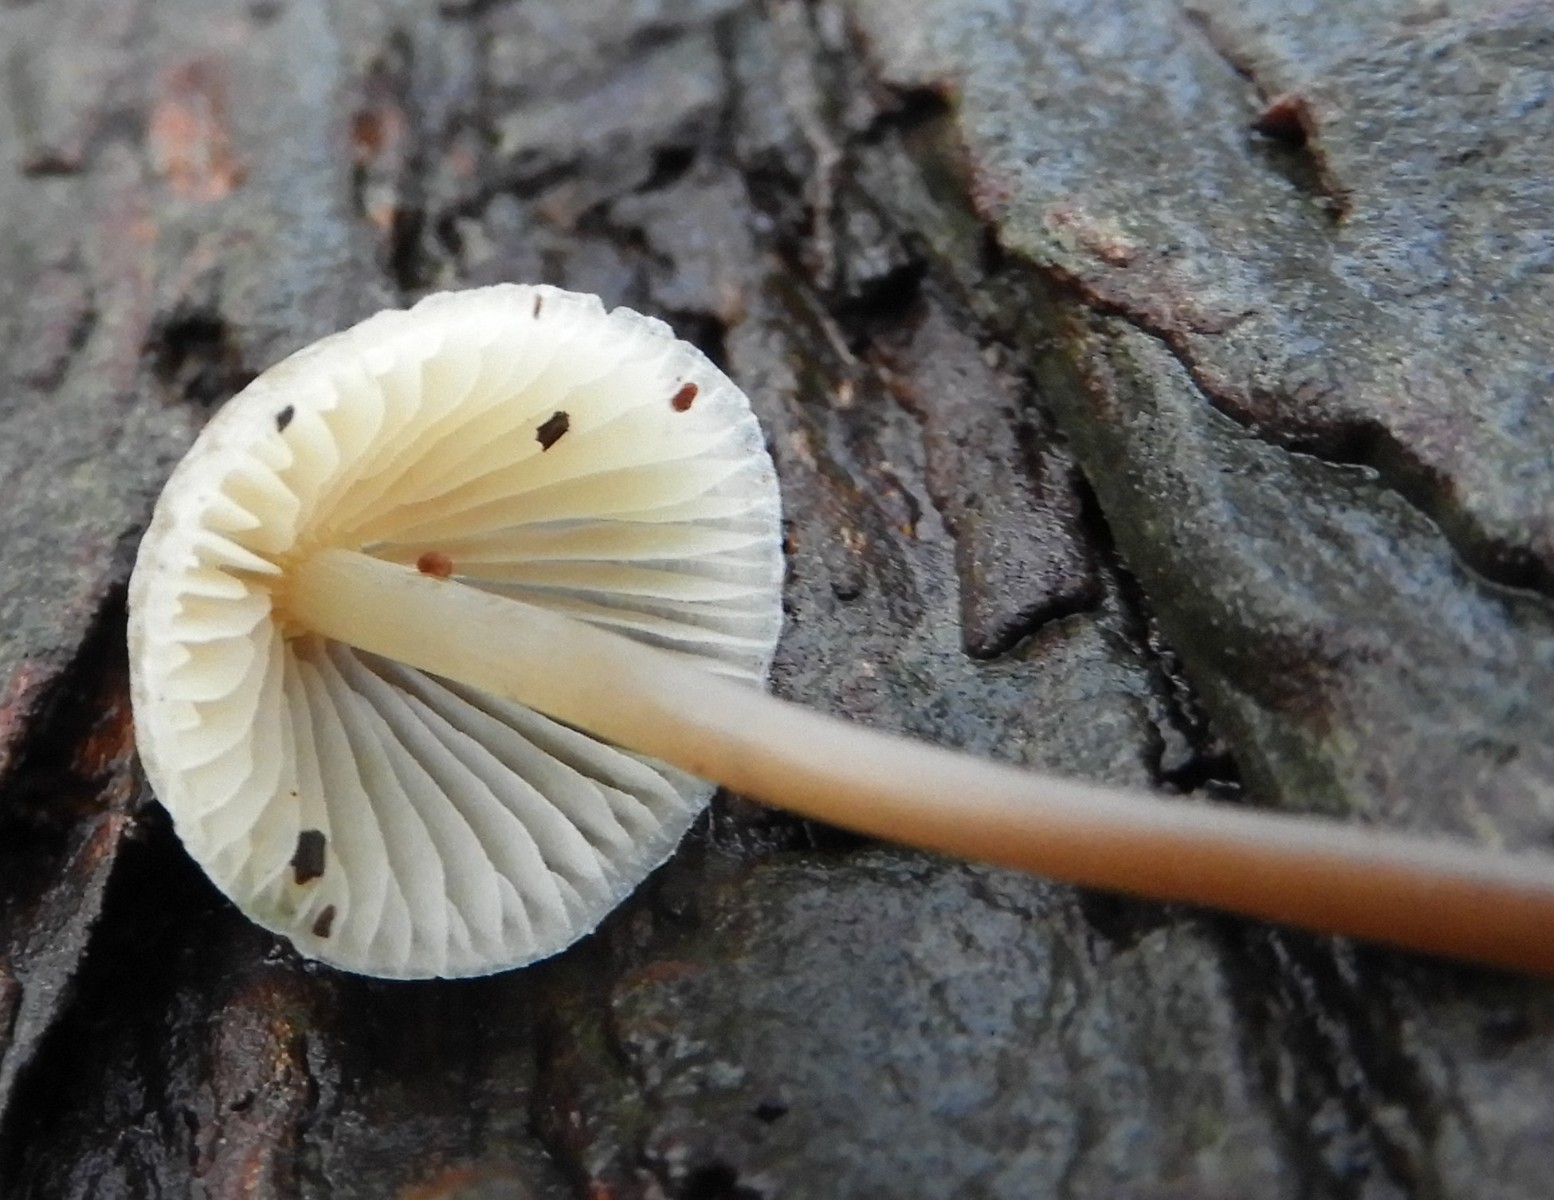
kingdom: Fungi
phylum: Basidiomycota
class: Agaricomycetes
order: Agaricales
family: Mycenaceae
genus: Mycena
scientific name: Mycena arcangeliana
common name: oliven-huesvamp
